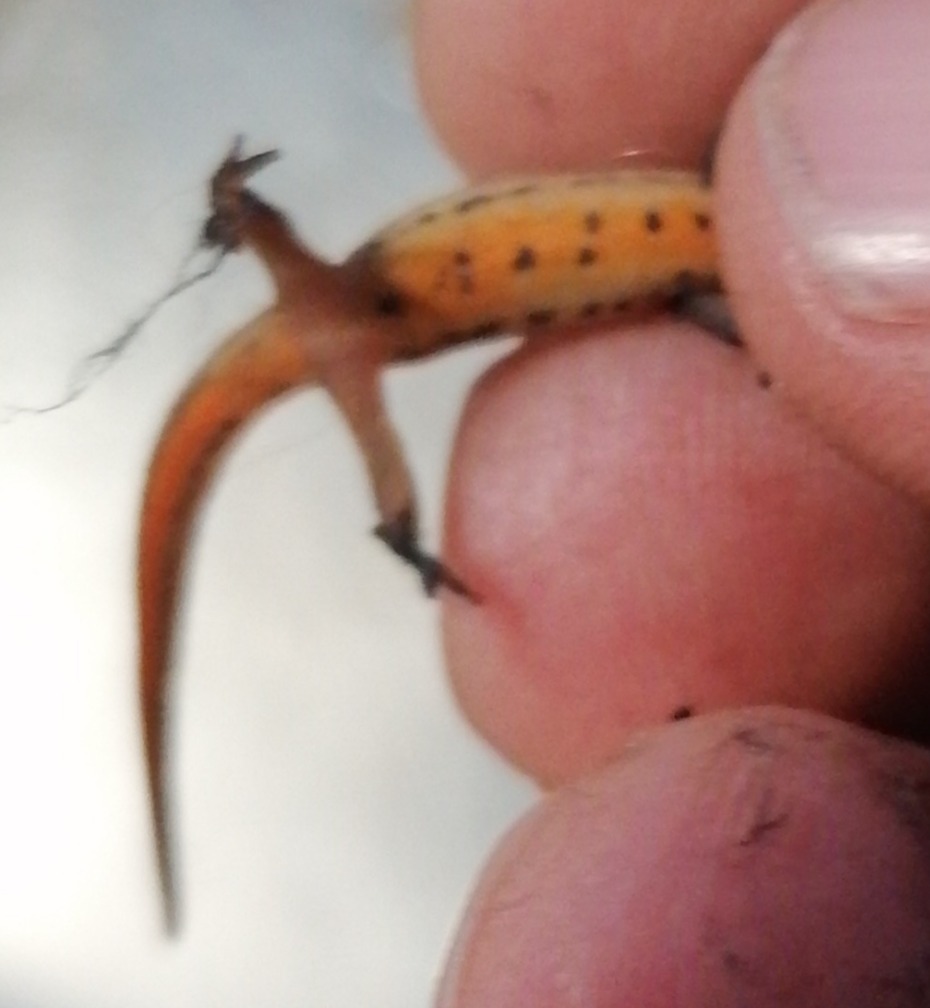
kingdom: Animalia
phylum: Chordata
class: Amphibia
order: Caudata
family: Salamandridae
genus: Lissotriton
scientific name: Lissotriton vulgaris
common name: Lille vandsalamander
